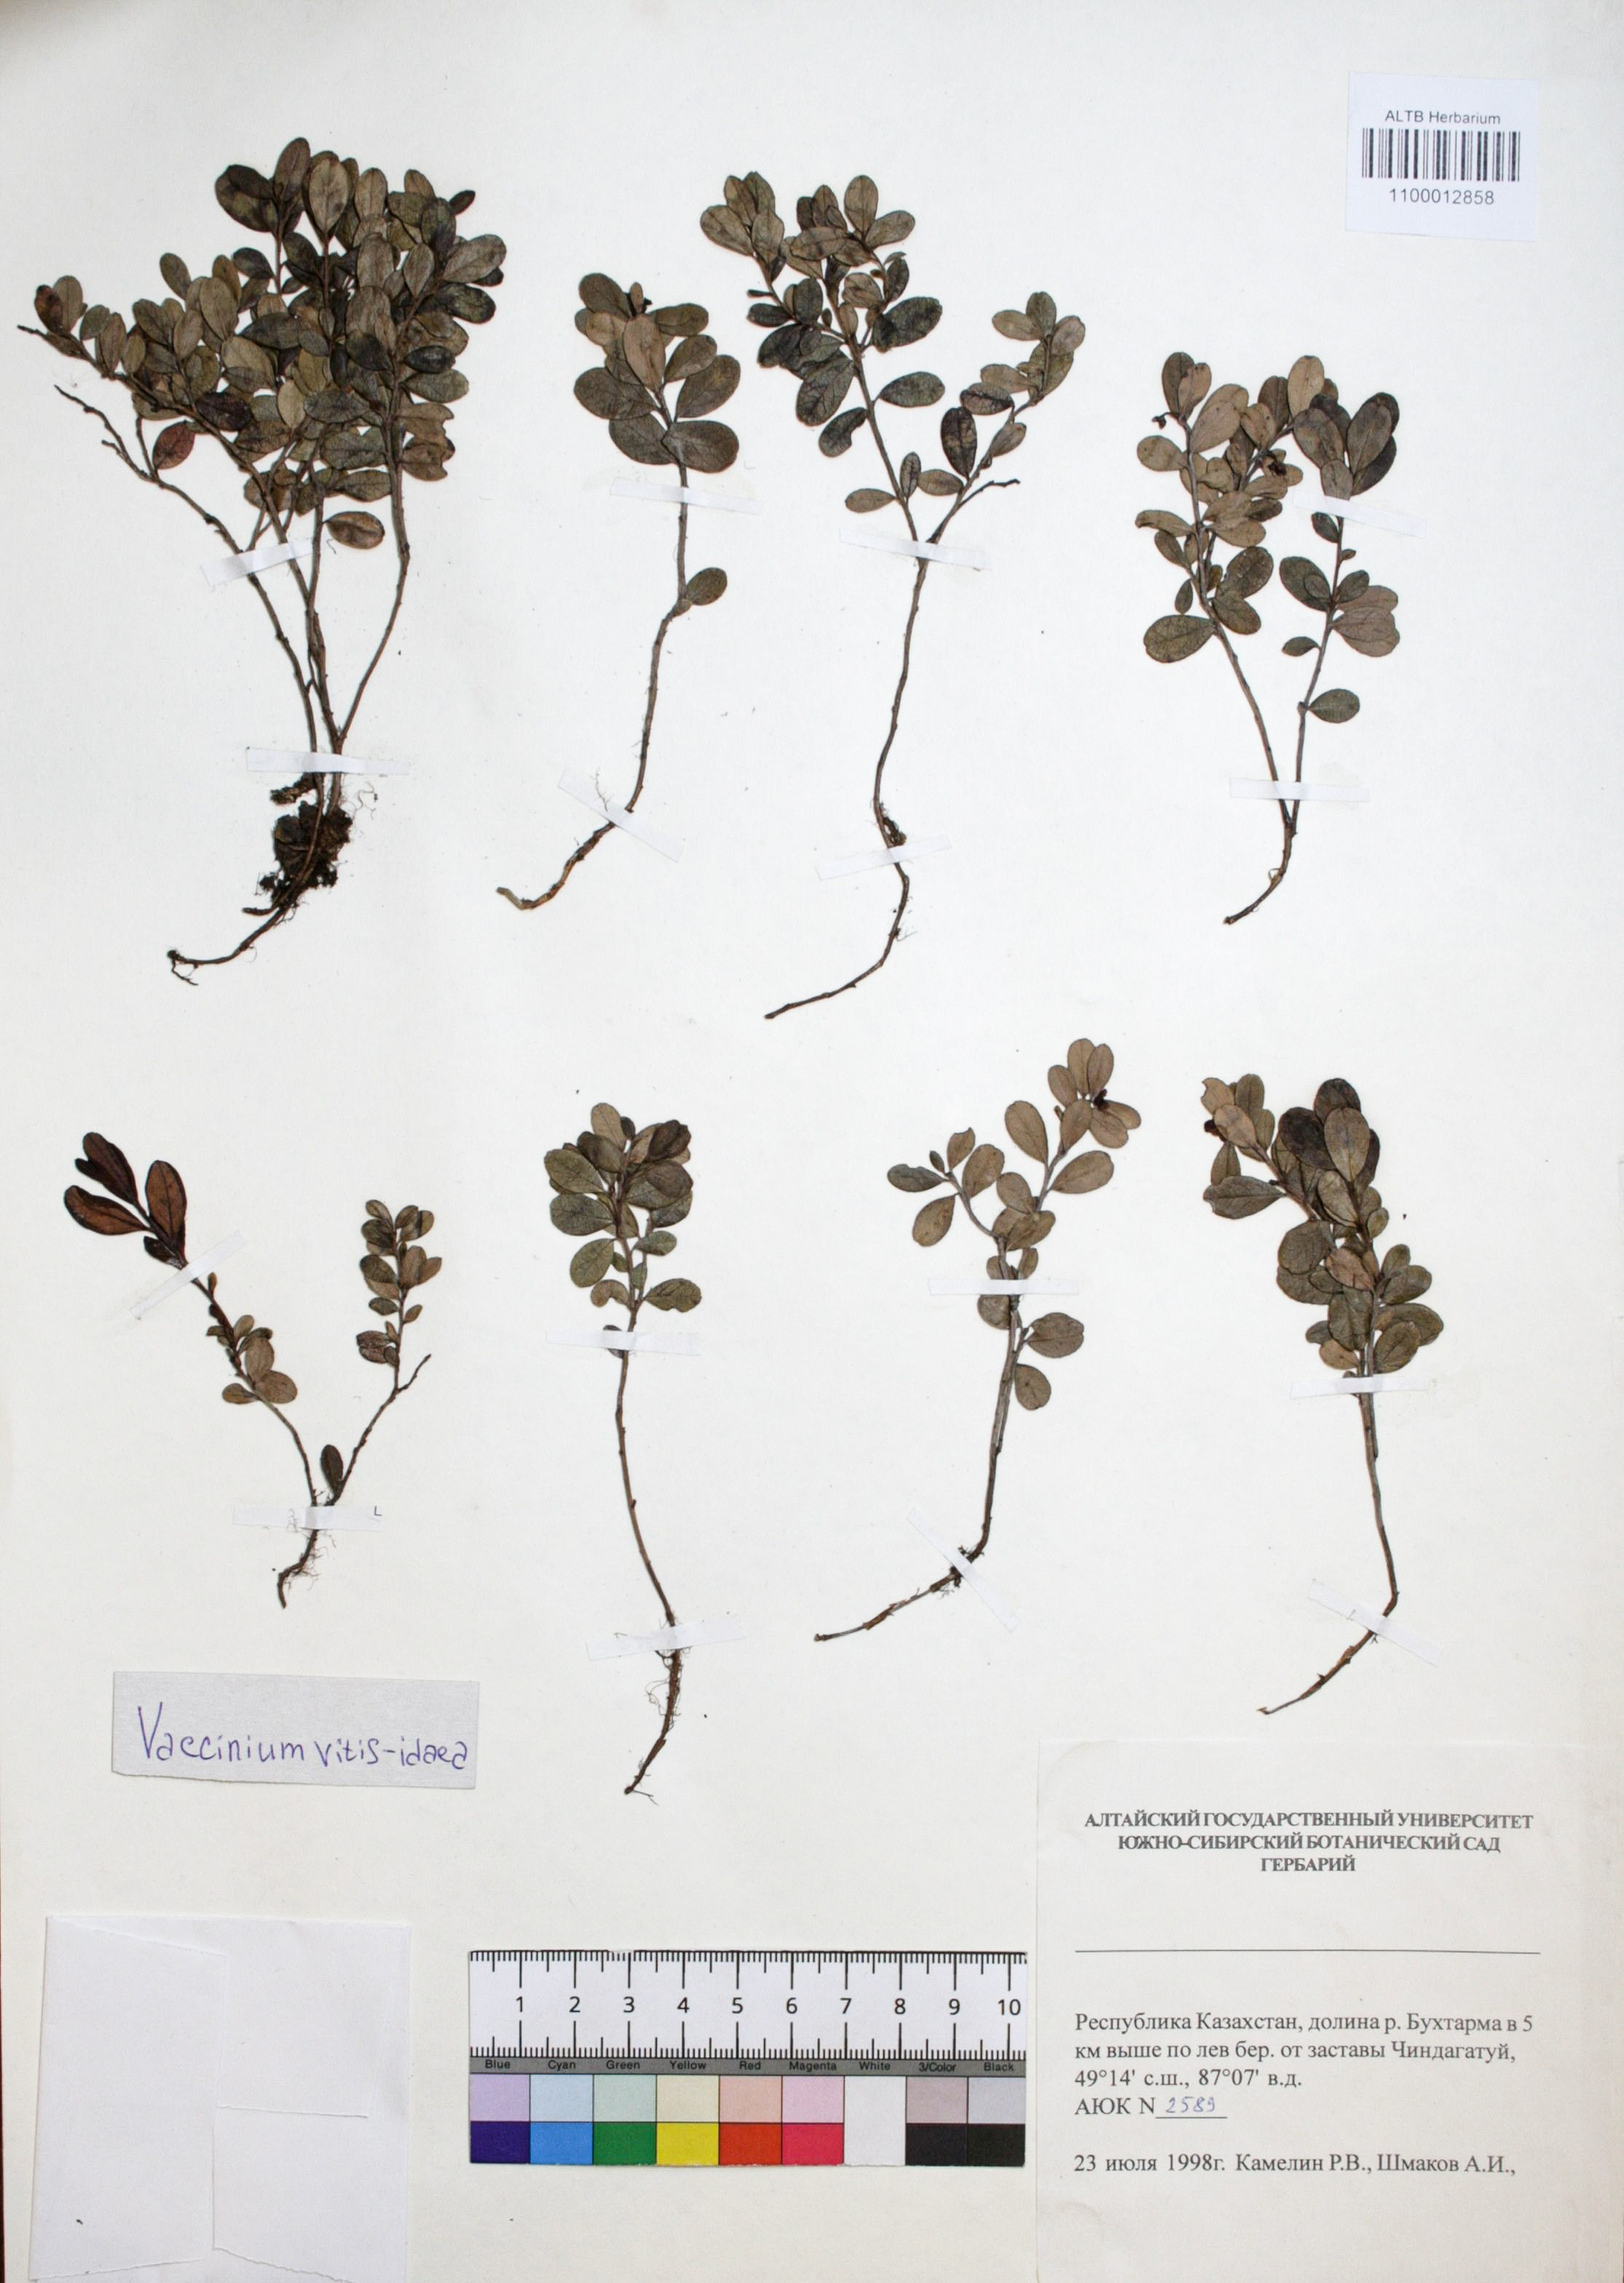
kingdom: Plantae
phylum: Tracheophyta
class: Magnoliopsida
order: Ericales
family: Ericaceae
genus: Vaccinium
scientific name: Vaccinium vitis-idaea
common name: Cowberry
